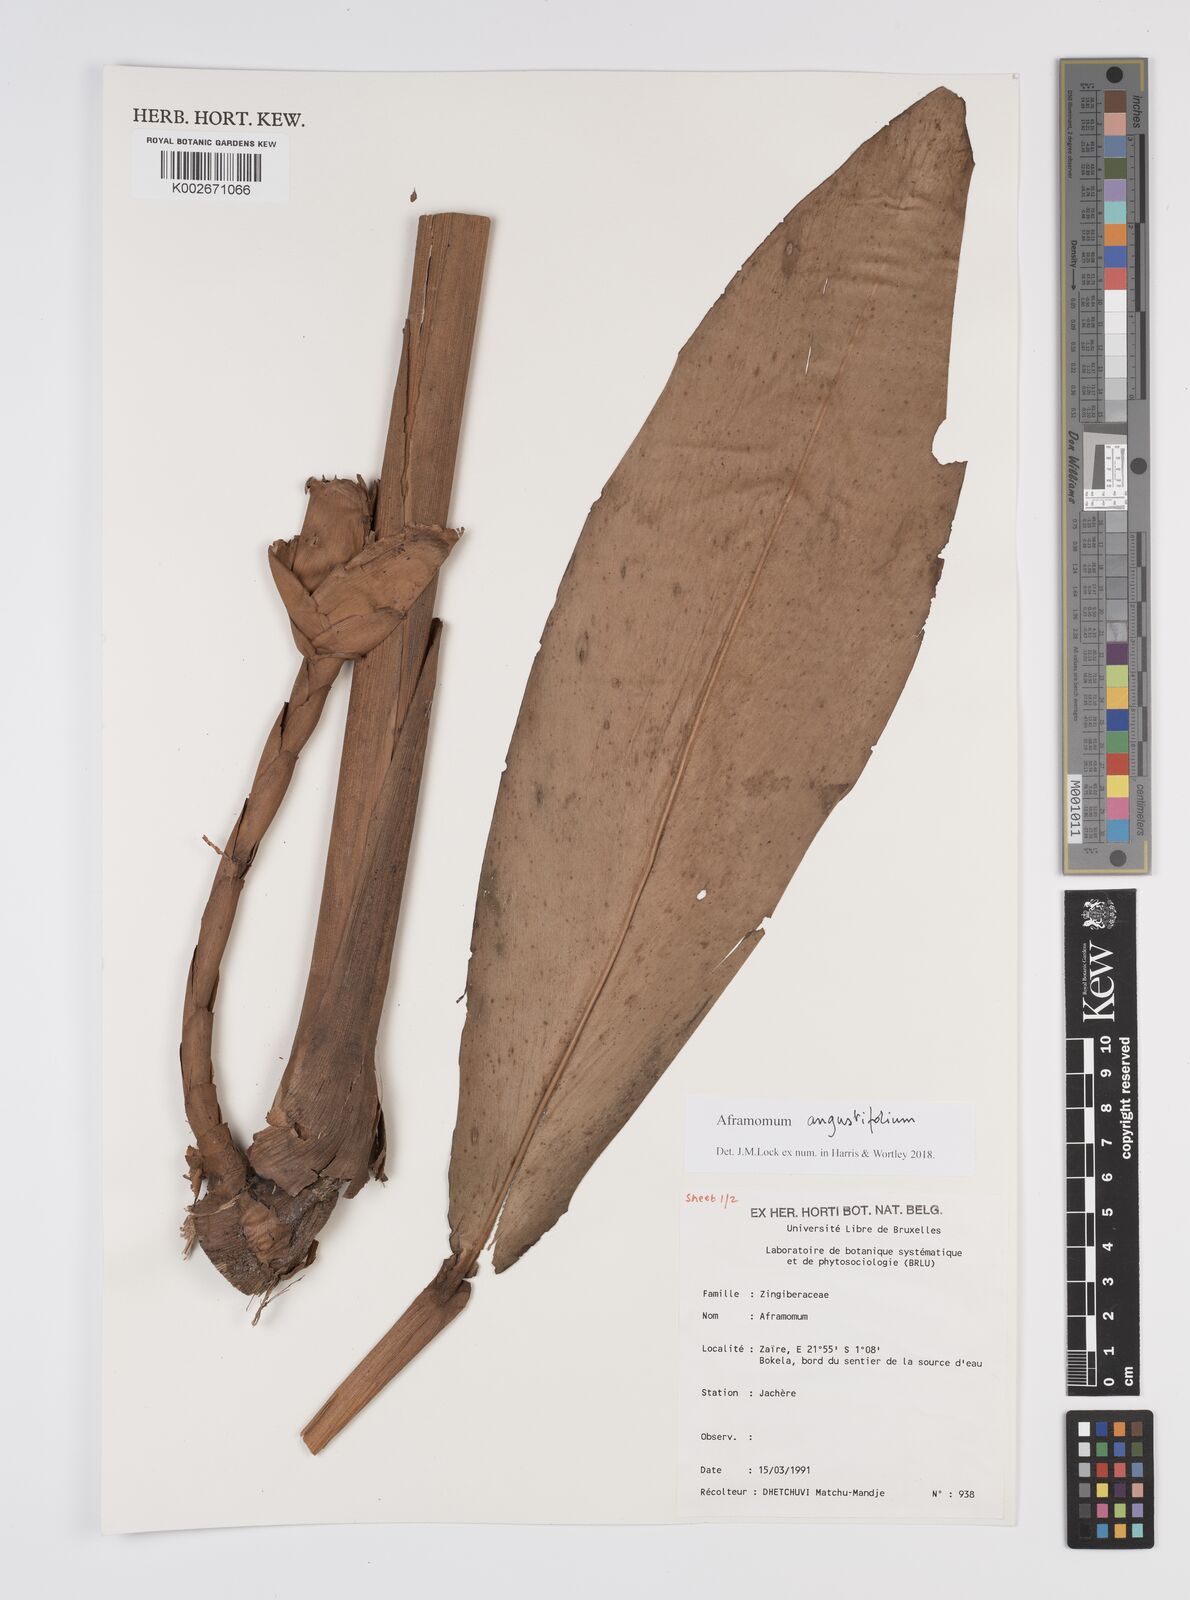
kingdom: Plantae
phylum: Tracheophyta
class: Liliopsida
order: Zingiberales
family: Zingiberaceae
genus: Aframomum
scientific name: Aframomum angustifolium
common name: Guinea grains
